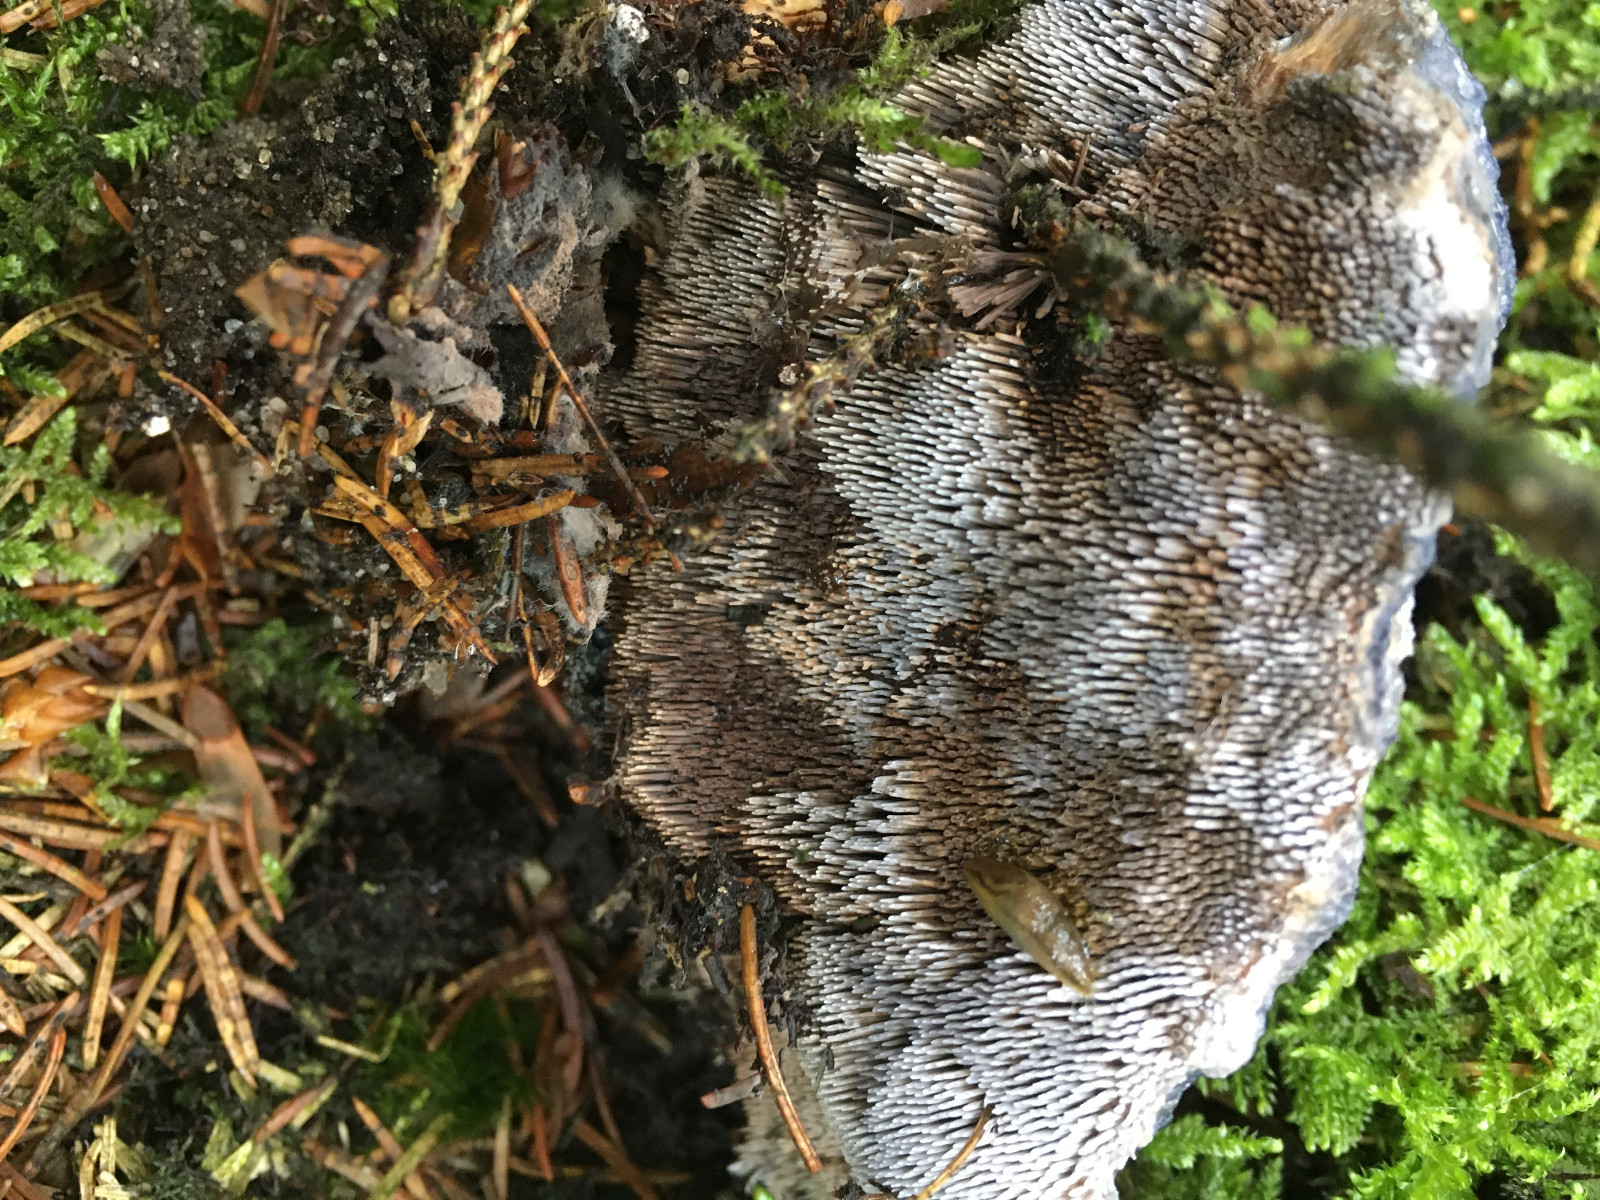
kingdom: Fungi
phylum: Basidiomycota
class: Agaricomycetes
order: Thelephorales
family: Bankeraceae
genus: Hydnellum
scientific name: Hydnellum caeruleum
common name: blålig korkpigsvamp
